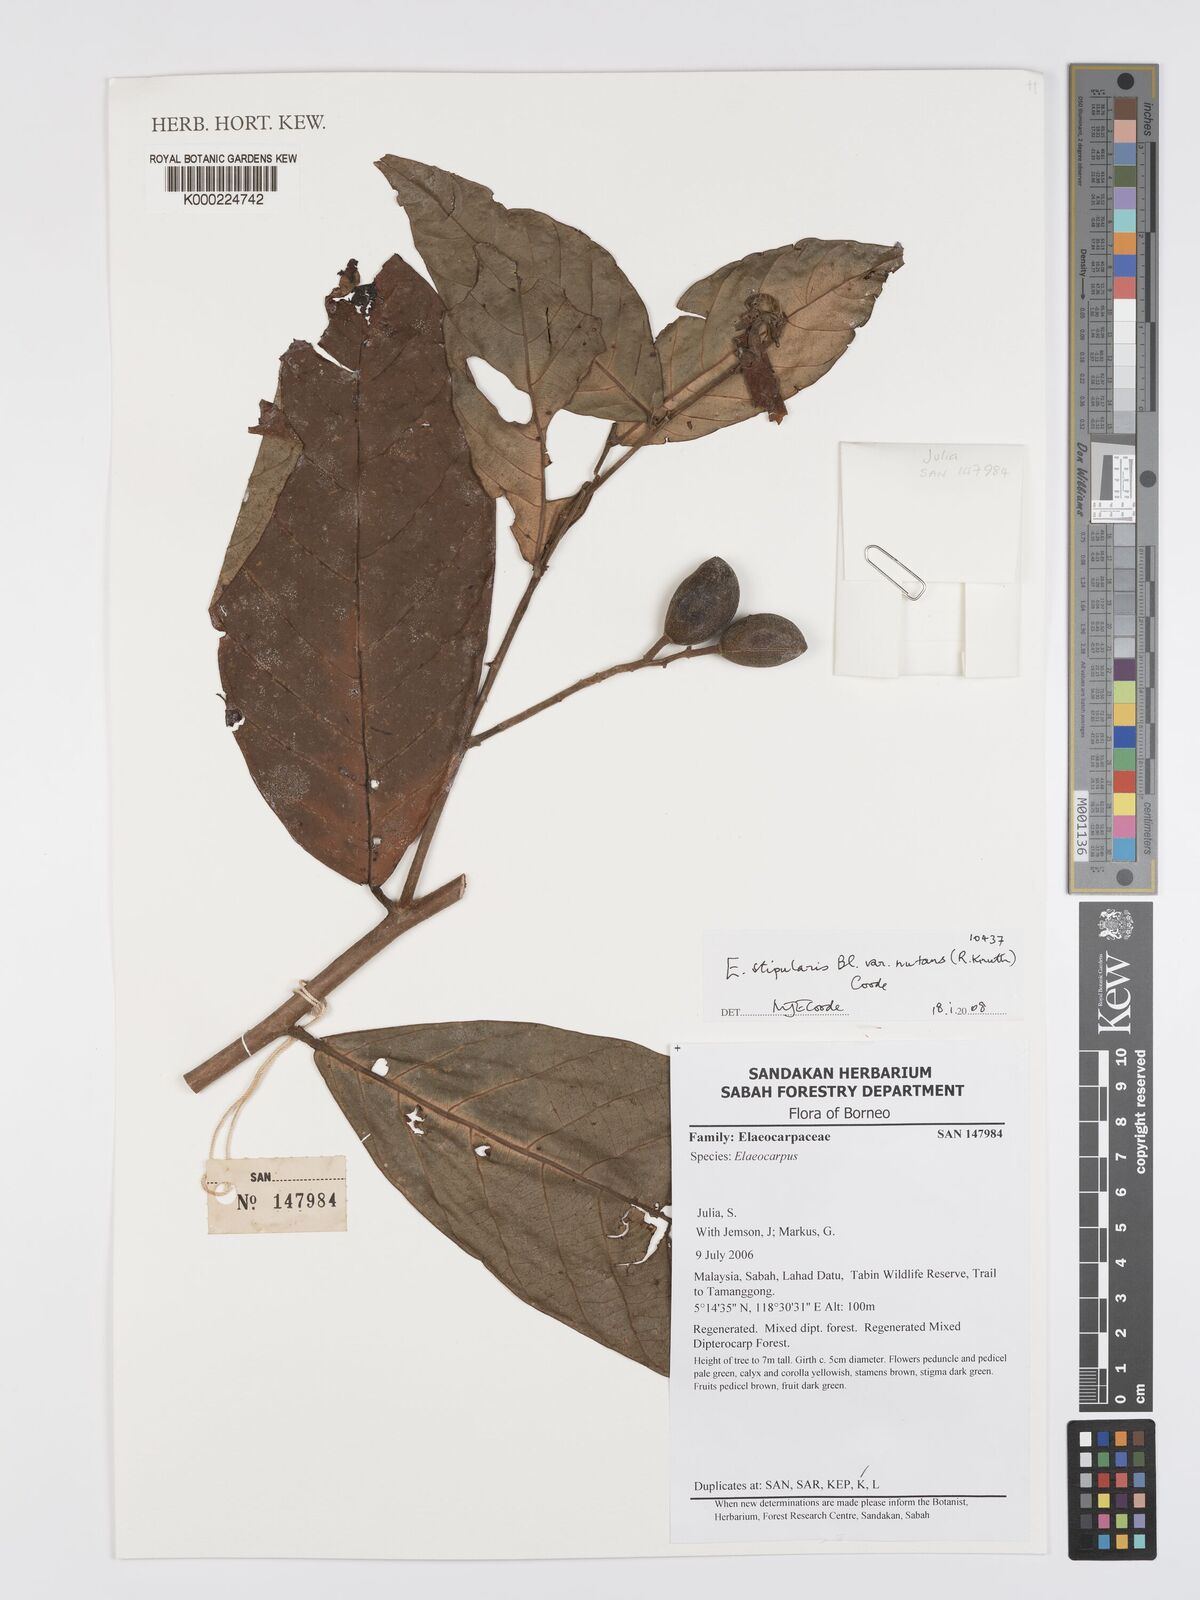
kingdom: Plantae
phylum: Tracheophyta
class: Magnoliopsida
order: Oxalidales
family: Elaeocarpaceae
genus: Elaeocarpus
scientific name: Elaeocarpus stipularis
